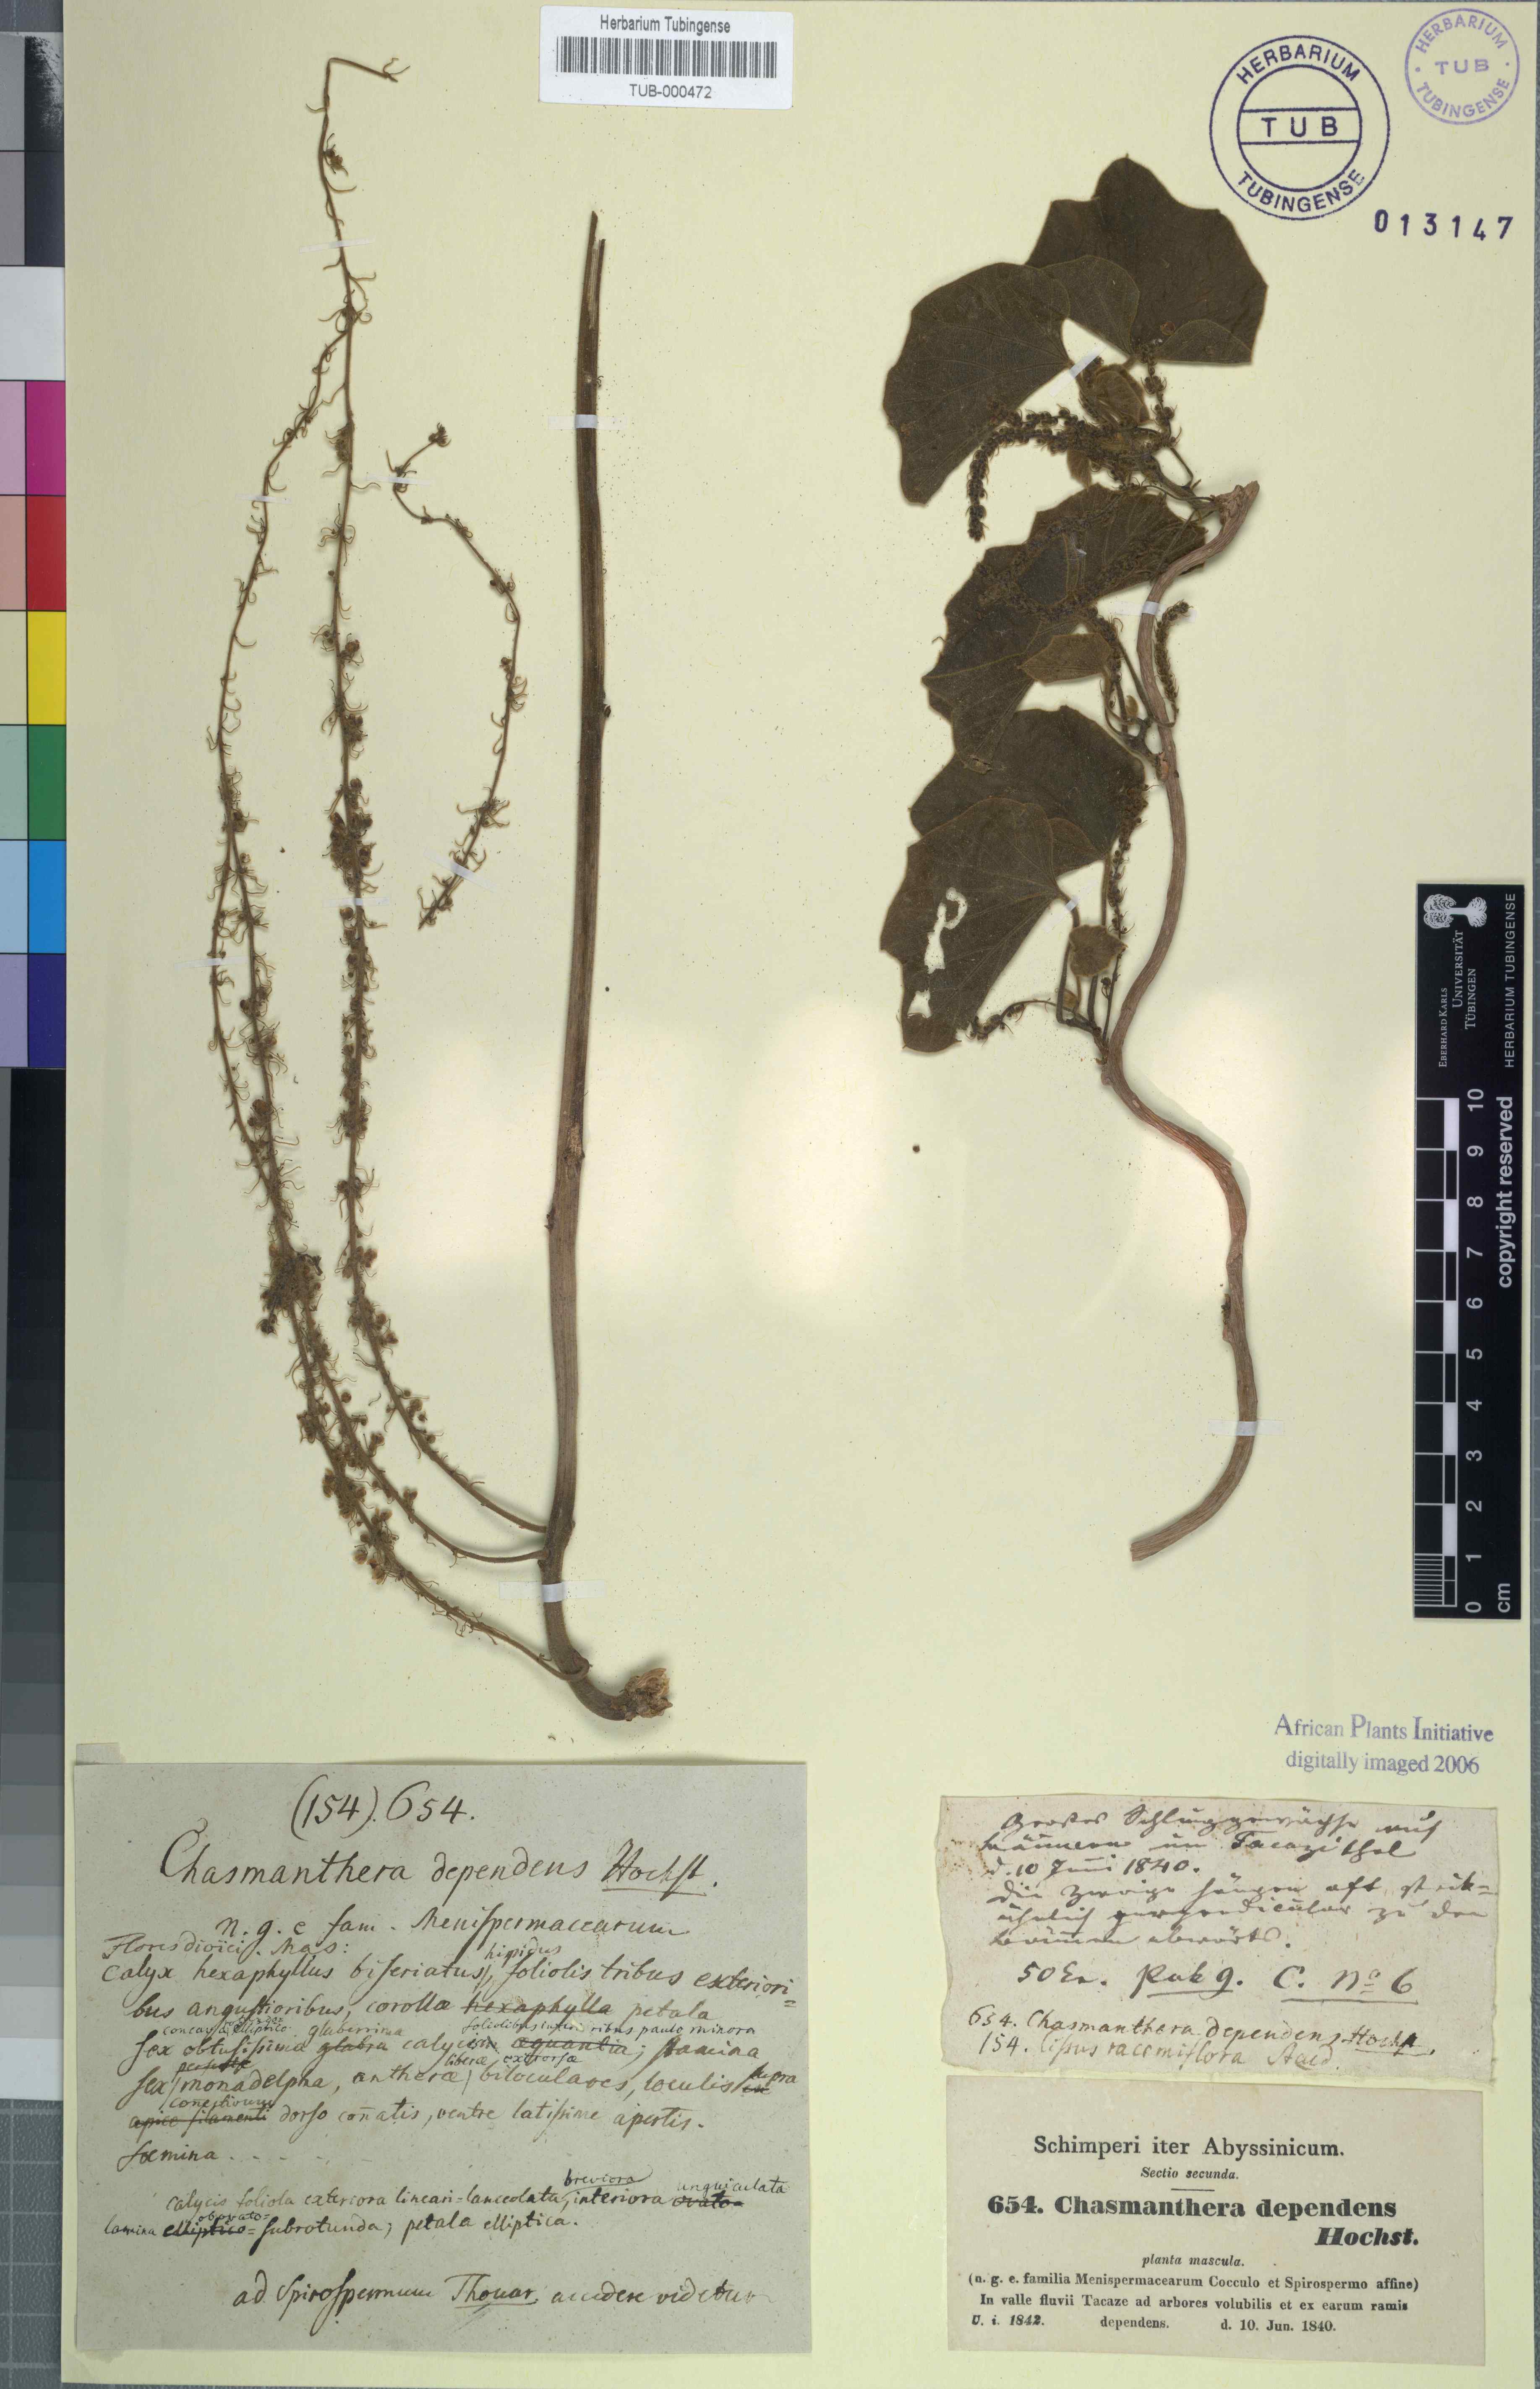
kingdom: Plantae
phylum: Tracheophyta
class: Magnoliopsida
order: Ranunculales
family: Menispermaceae
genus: Chasmanthera
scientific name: Chasmanthera dependens
